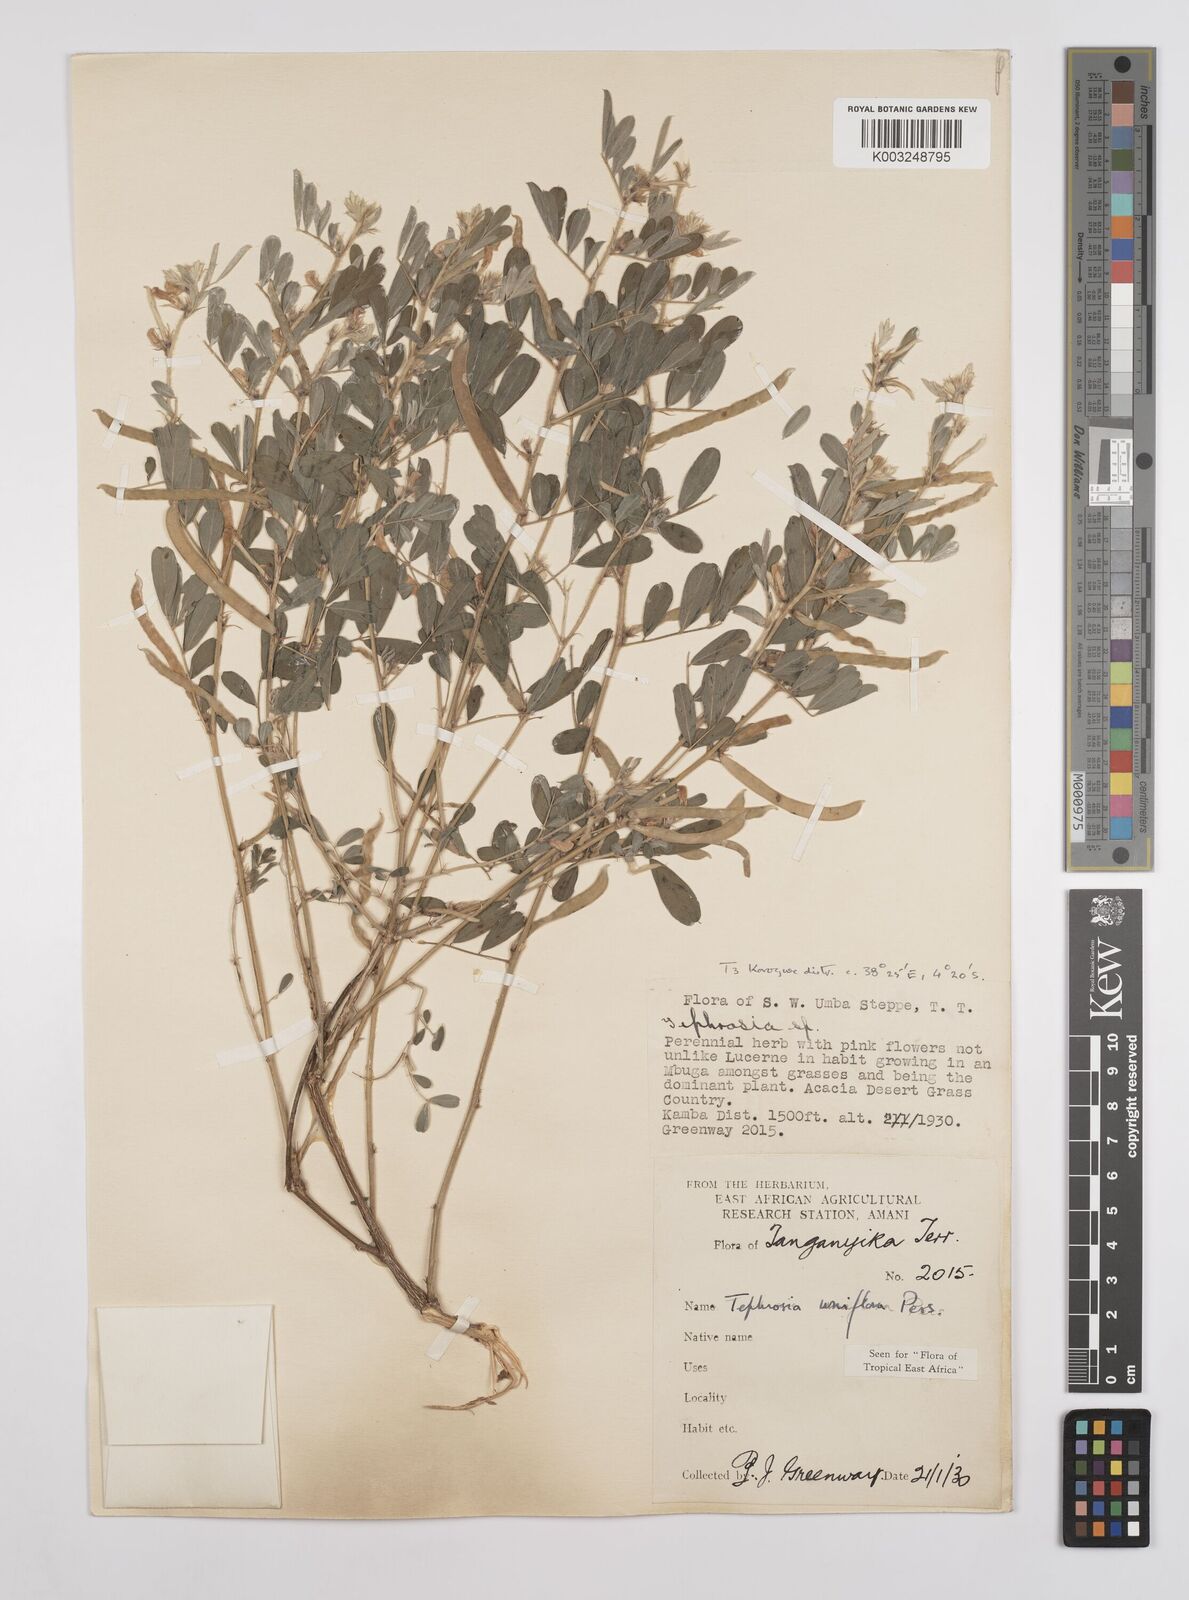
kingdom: Plantae
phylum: Tracheophyta
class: Magnoliopsida
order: Fabales
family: Fabaceae
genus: Tephrosia
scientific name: Tephrosia uniflora
